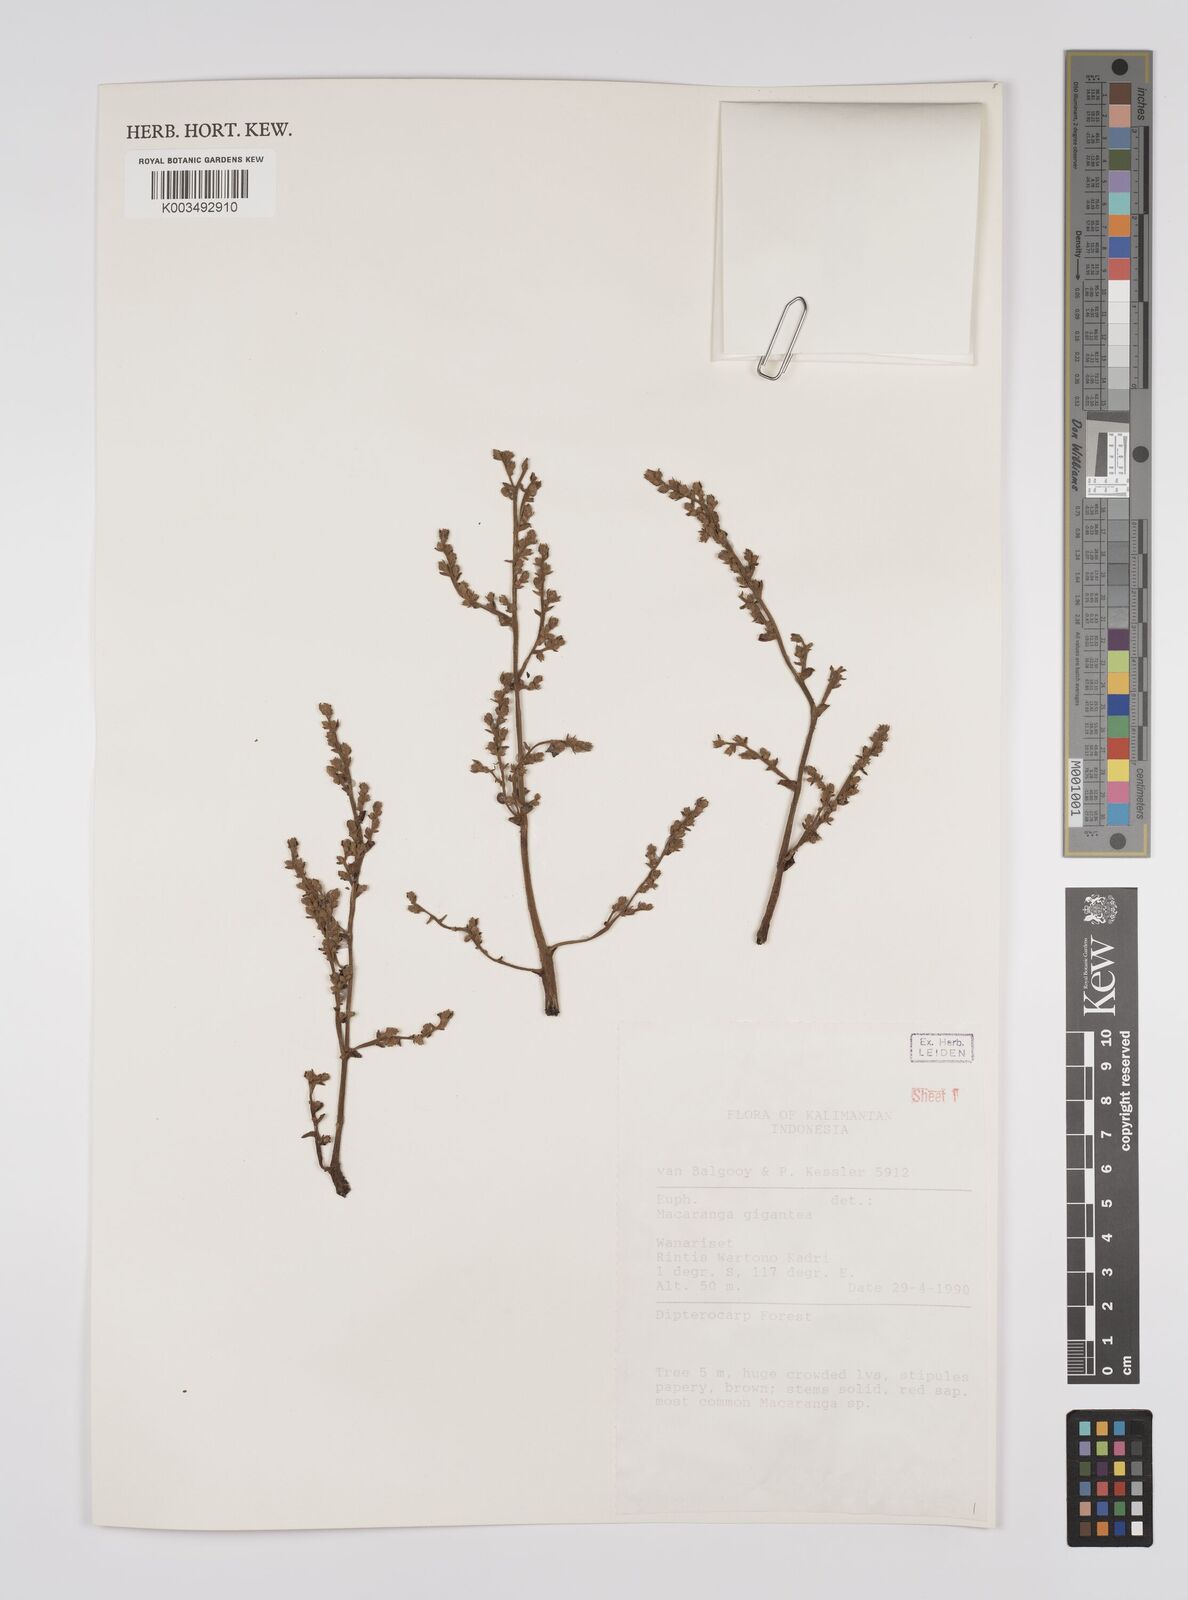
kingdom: Plantae
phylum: Tracheophyta
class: Magnoliopsida
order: Malpighiales
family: Euphorbiaceae
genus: Macaranga
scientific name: Macaranga gigantea
